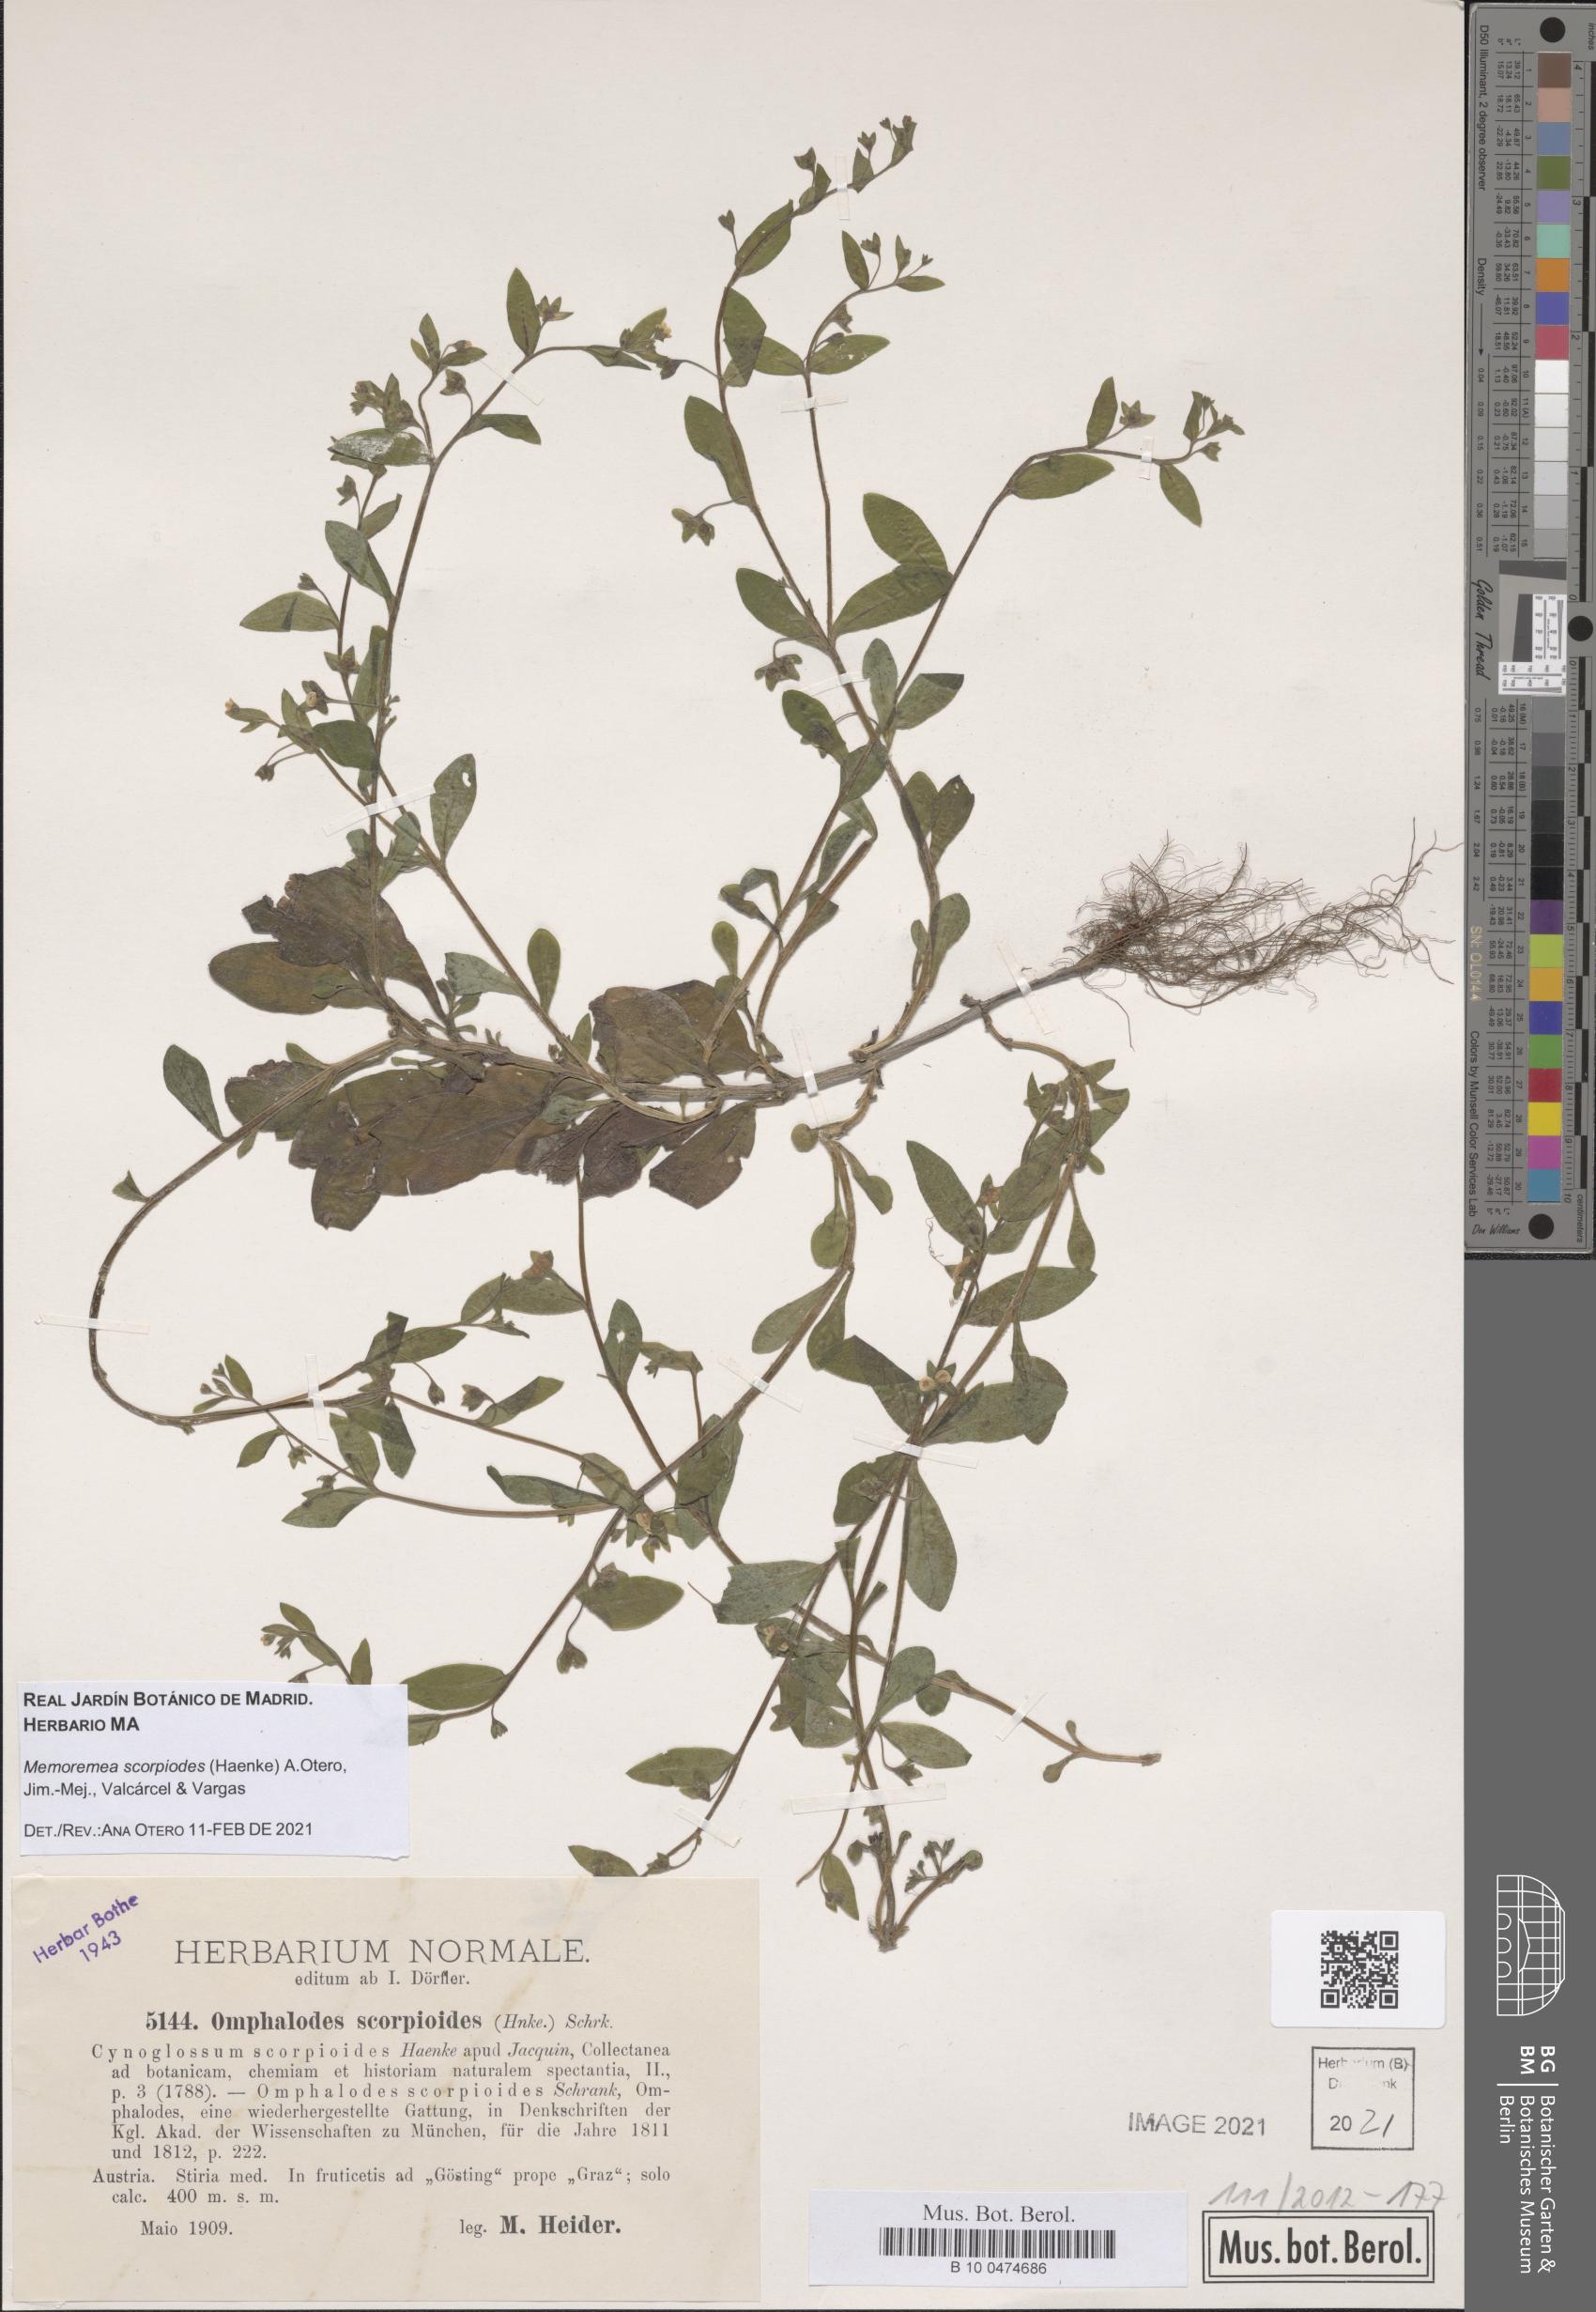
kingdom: Plantae
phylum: Tracheophyta
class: Magnoliopsida
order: Boraginales
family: Boraginaceae
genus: Memoremea
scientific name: Memoremea scorpioides
